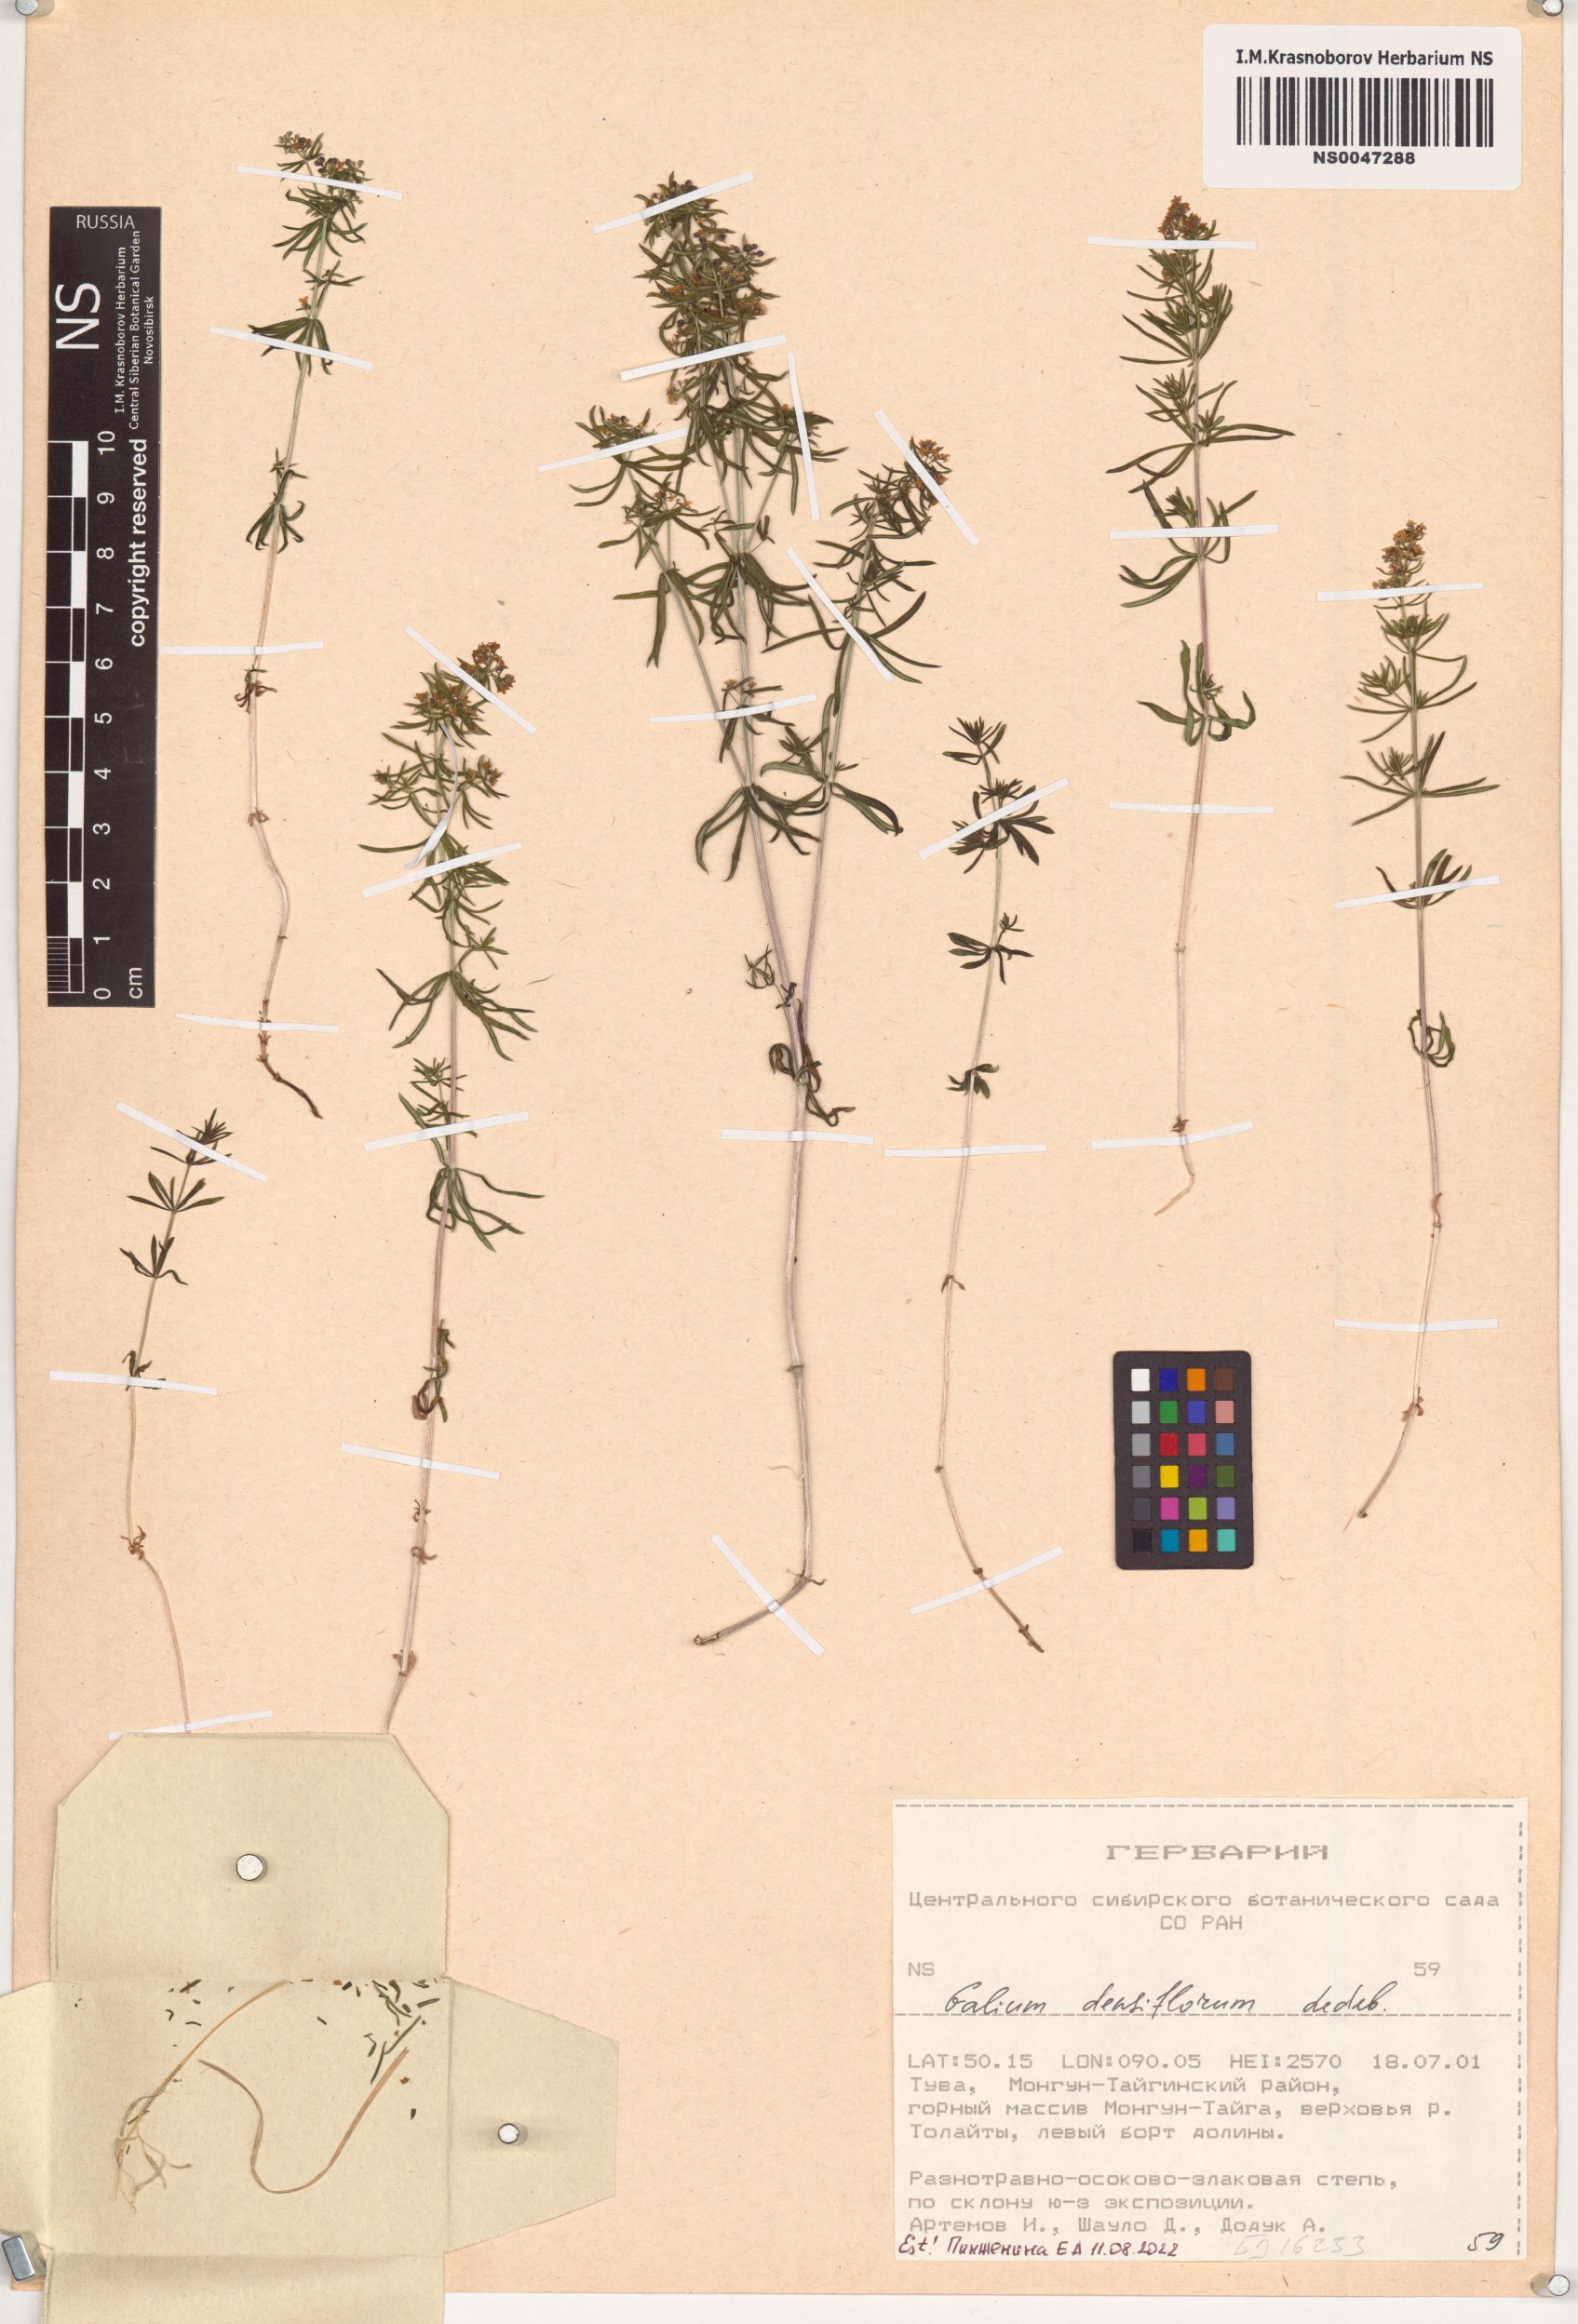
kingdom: Plantae
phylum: Tracheophyta
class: Magnoliopsida
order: Gentianales
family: Rubiaceae
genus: Galium
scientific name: Galium densiflorum
